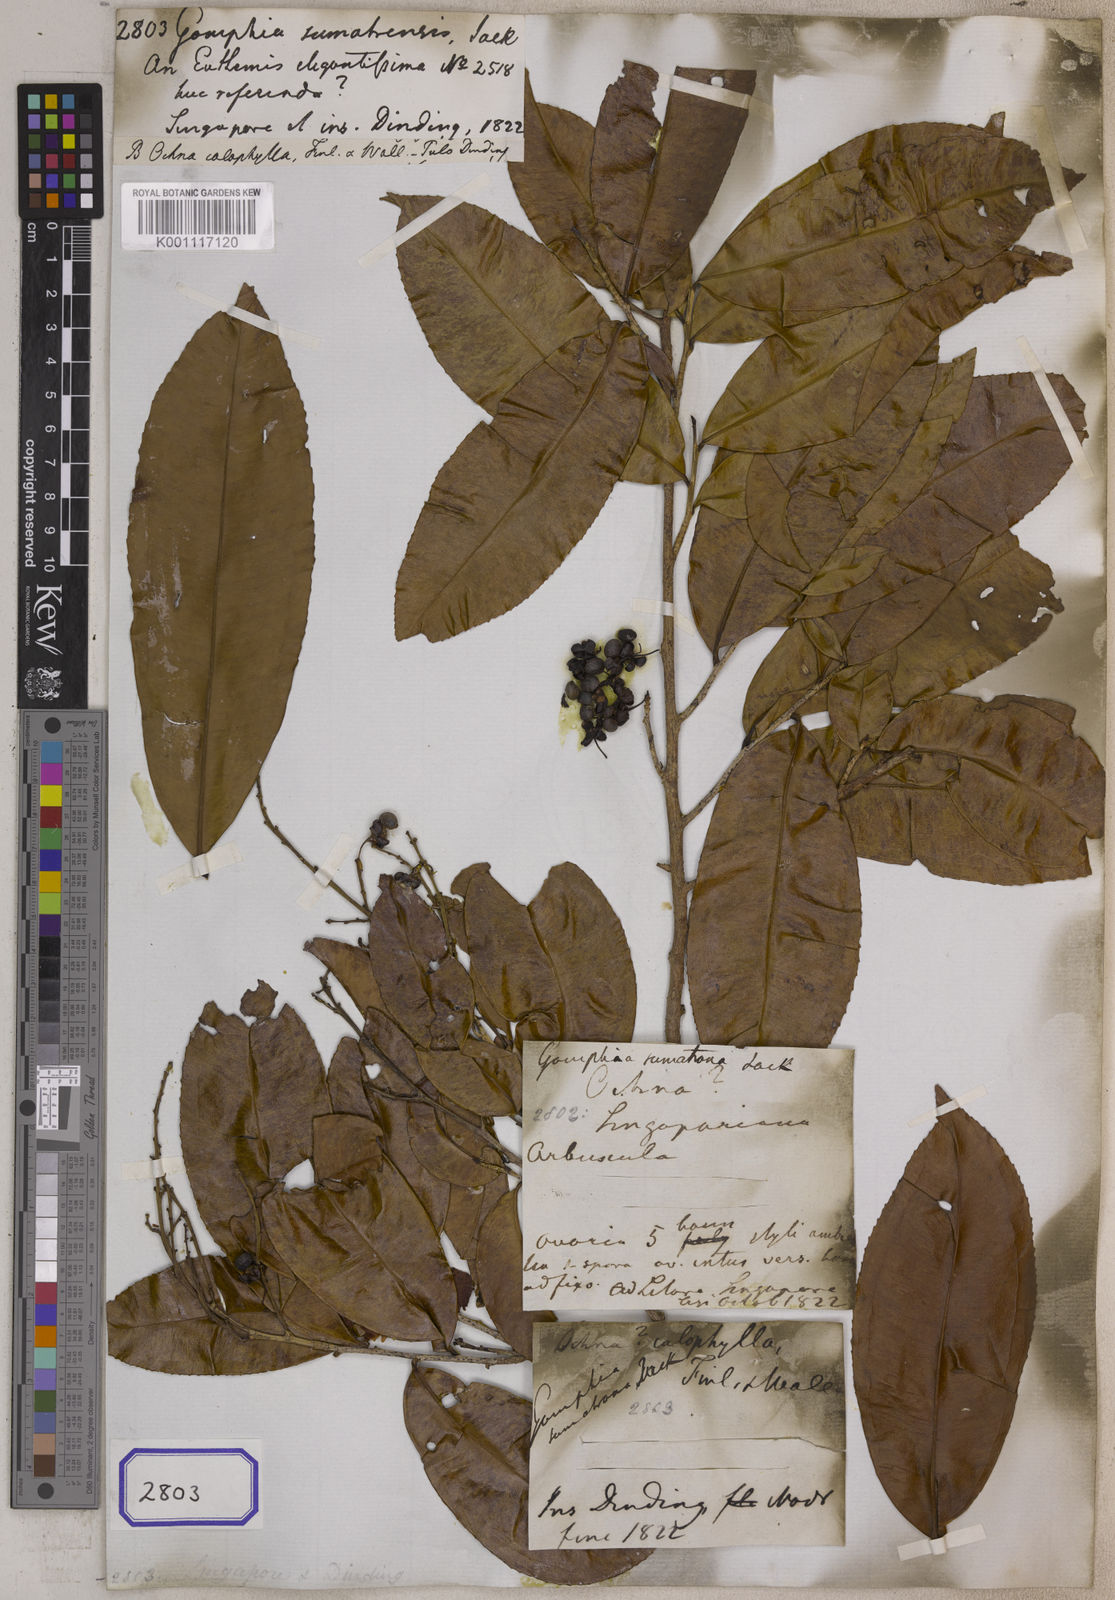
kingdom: Plantae
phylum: Tracheophyta
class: Magnoliopsida
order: Malpighiales
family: Ochnaceae
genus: Gomphia
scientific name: Gomphia serrata
